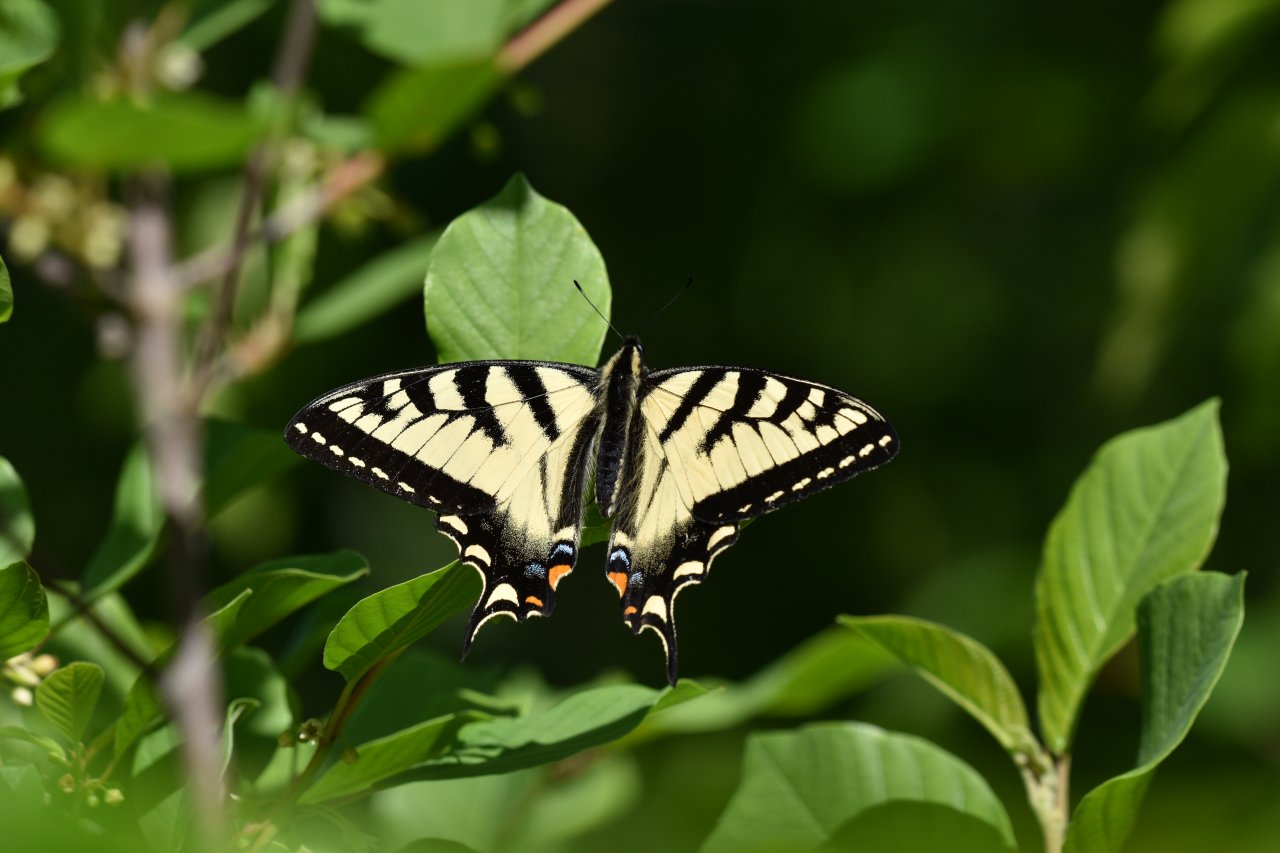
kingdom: Animalia
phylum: Arthropoda
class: Insecta
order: Lepidoptera
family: Papilionidae
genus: Pterourus
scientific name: Pterourus canadensis
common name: Canadian Tiger Swallowtail
